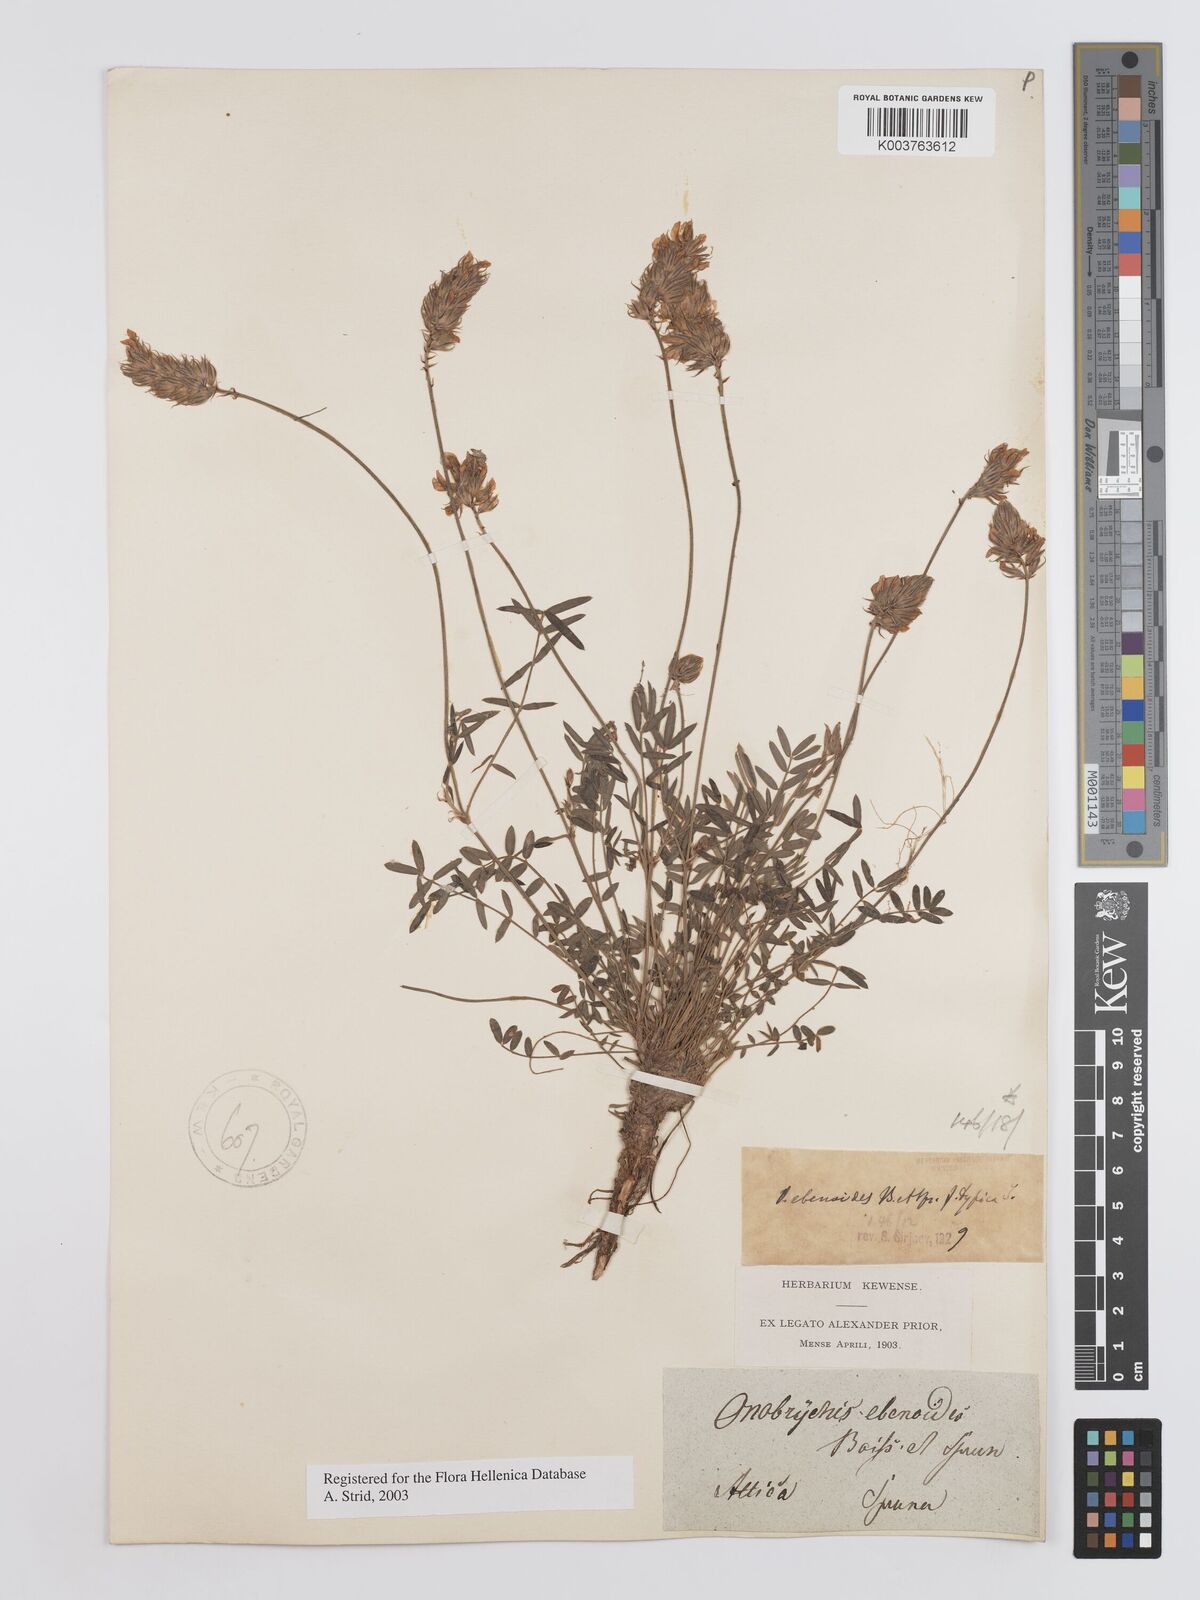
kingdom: Plantae
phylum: Tracheophyta
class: Magnoliopsida
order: Fabales
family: Fabaceae
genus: Onobrychis
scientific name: Onobrychis ebenoides
